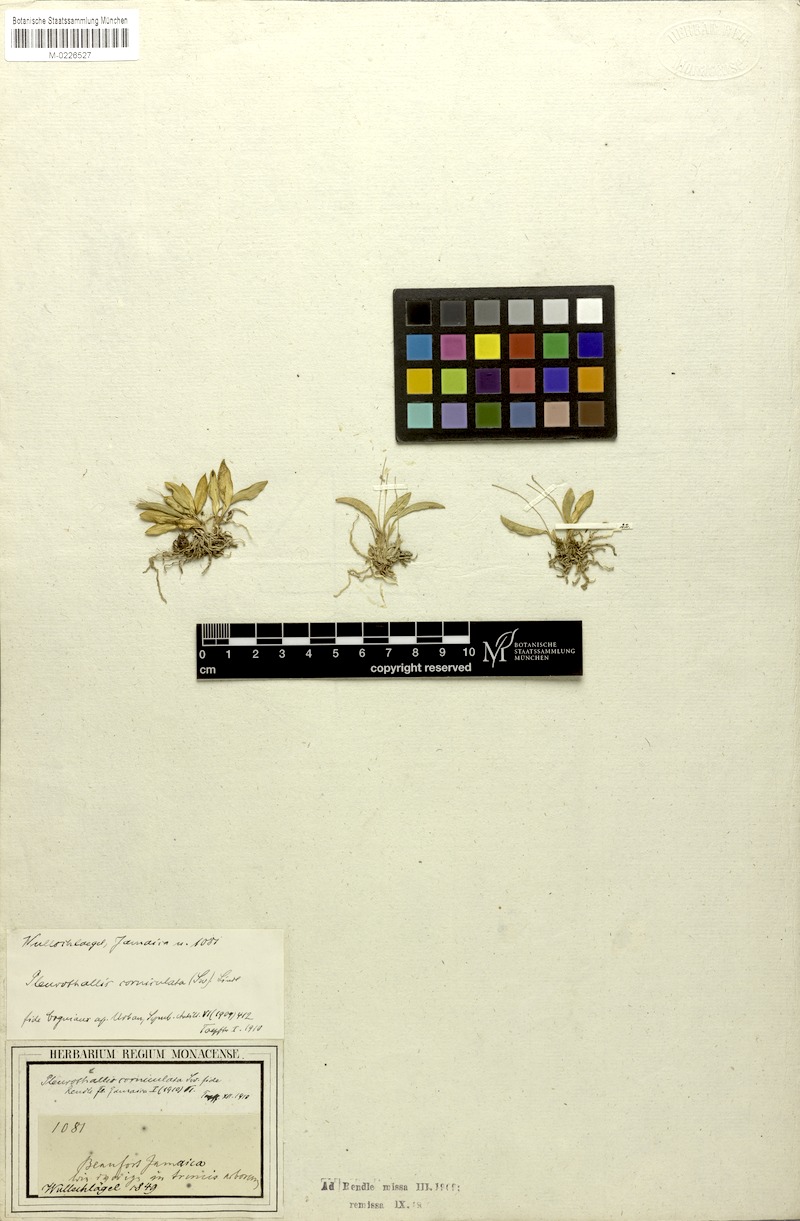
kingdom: Plantae
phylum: Tracheophyta
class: Liliopsida
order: Asparagales
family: Orchidaceae
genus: Specklinia
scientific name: Specklinia corniculata
